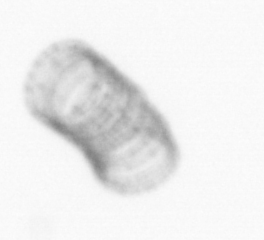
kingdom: Chromista
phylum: Ochrophyta
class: Bacillariophyceae
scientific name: Bacillariophyceae
